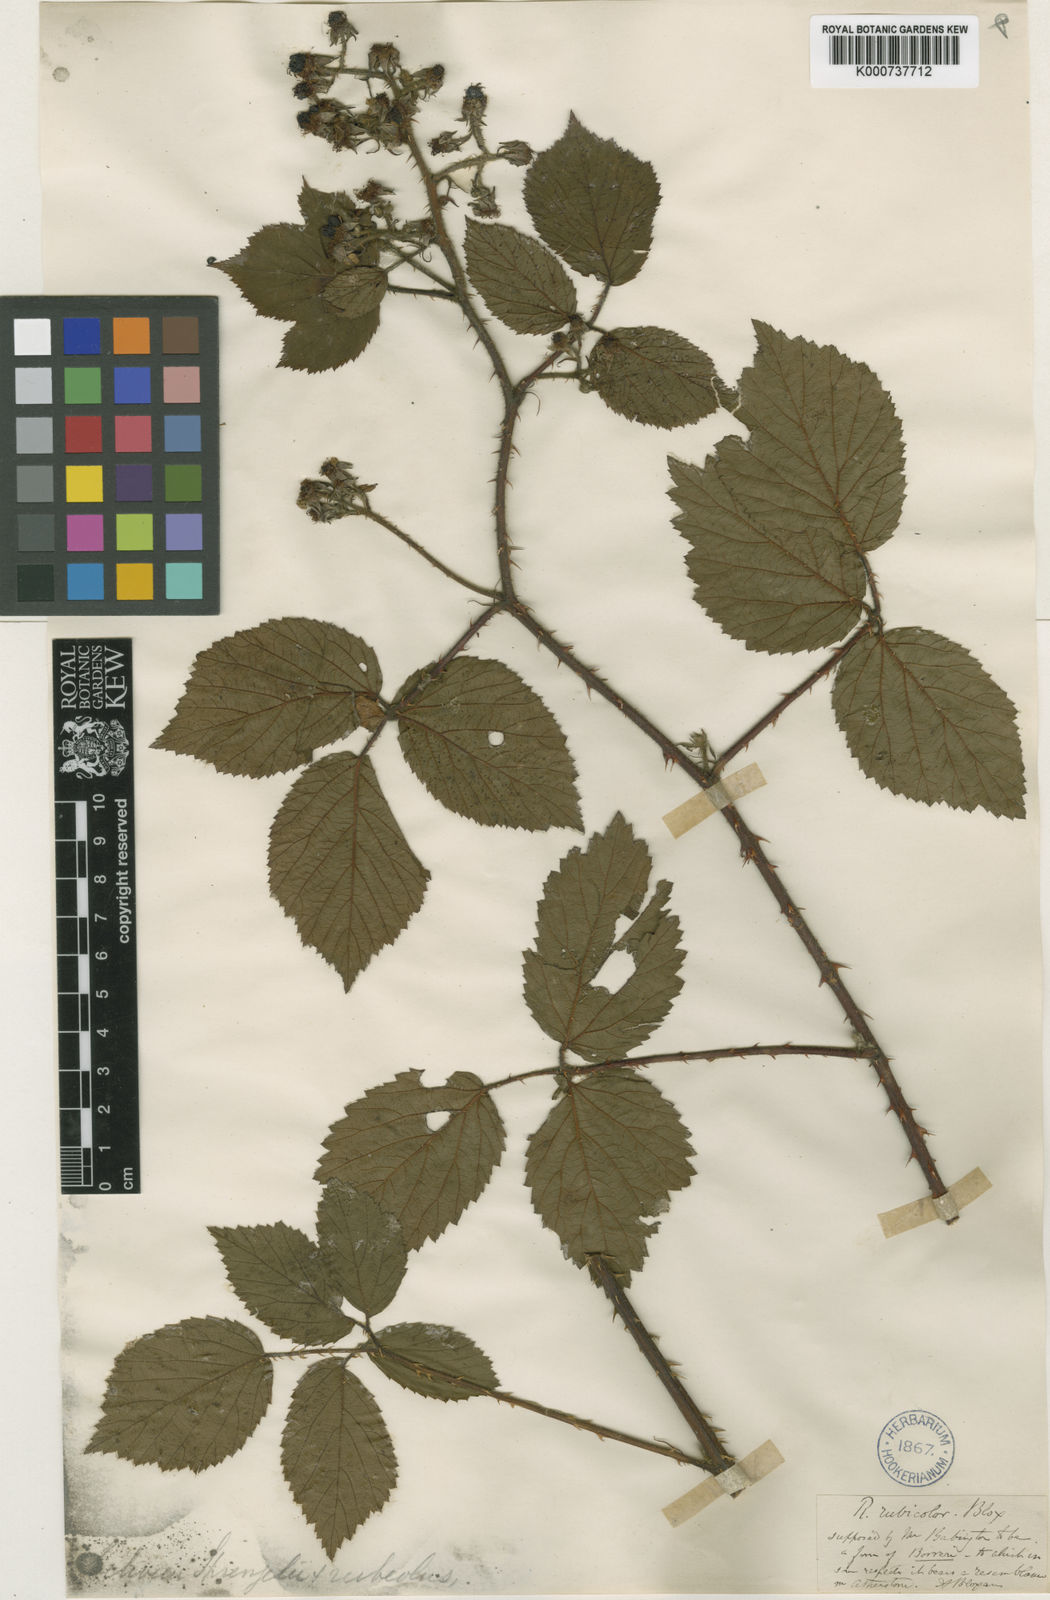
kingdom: Plantae
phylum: Tracheophyta
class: Magnoliopsida
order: Rosales
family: Rosaceae
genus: Rubus
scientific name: Rubus
